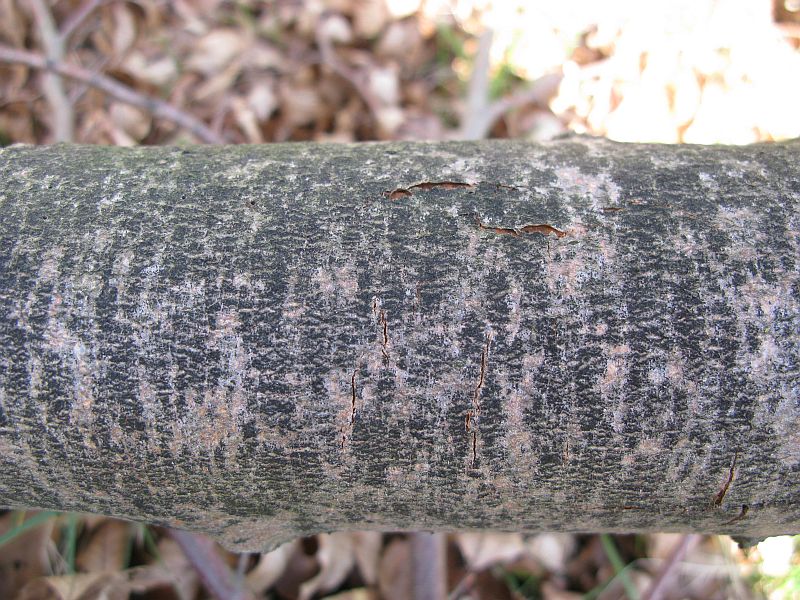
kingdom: Fungi
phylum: Ascomycota
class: Leotiomycetes
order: Rhytismatales
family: Ascodichaenaceae
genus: Ascodichaena
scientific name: Ascodichaena rugosa
